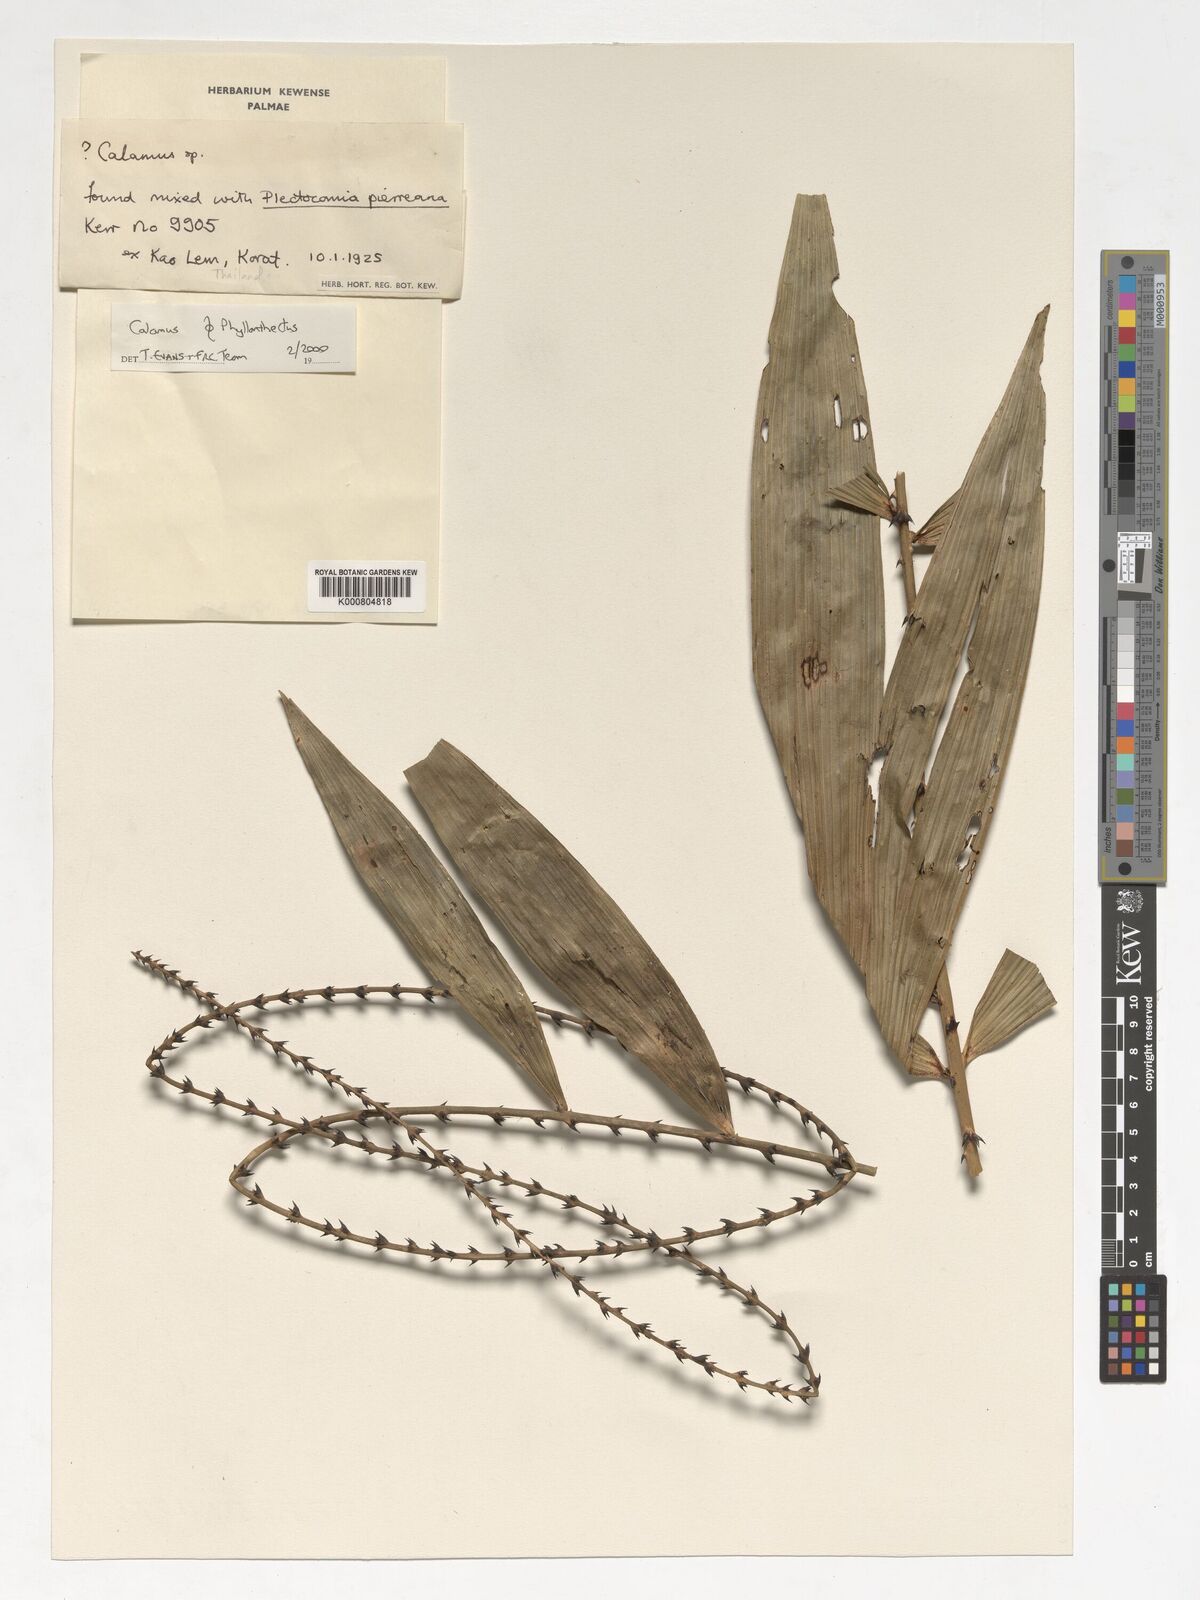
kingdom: Plantae
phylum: Tracheophyta
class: Liliopsida
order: Arecales
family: Arecaceae
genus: Plectocomia
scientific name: Plectocomia pierreana
